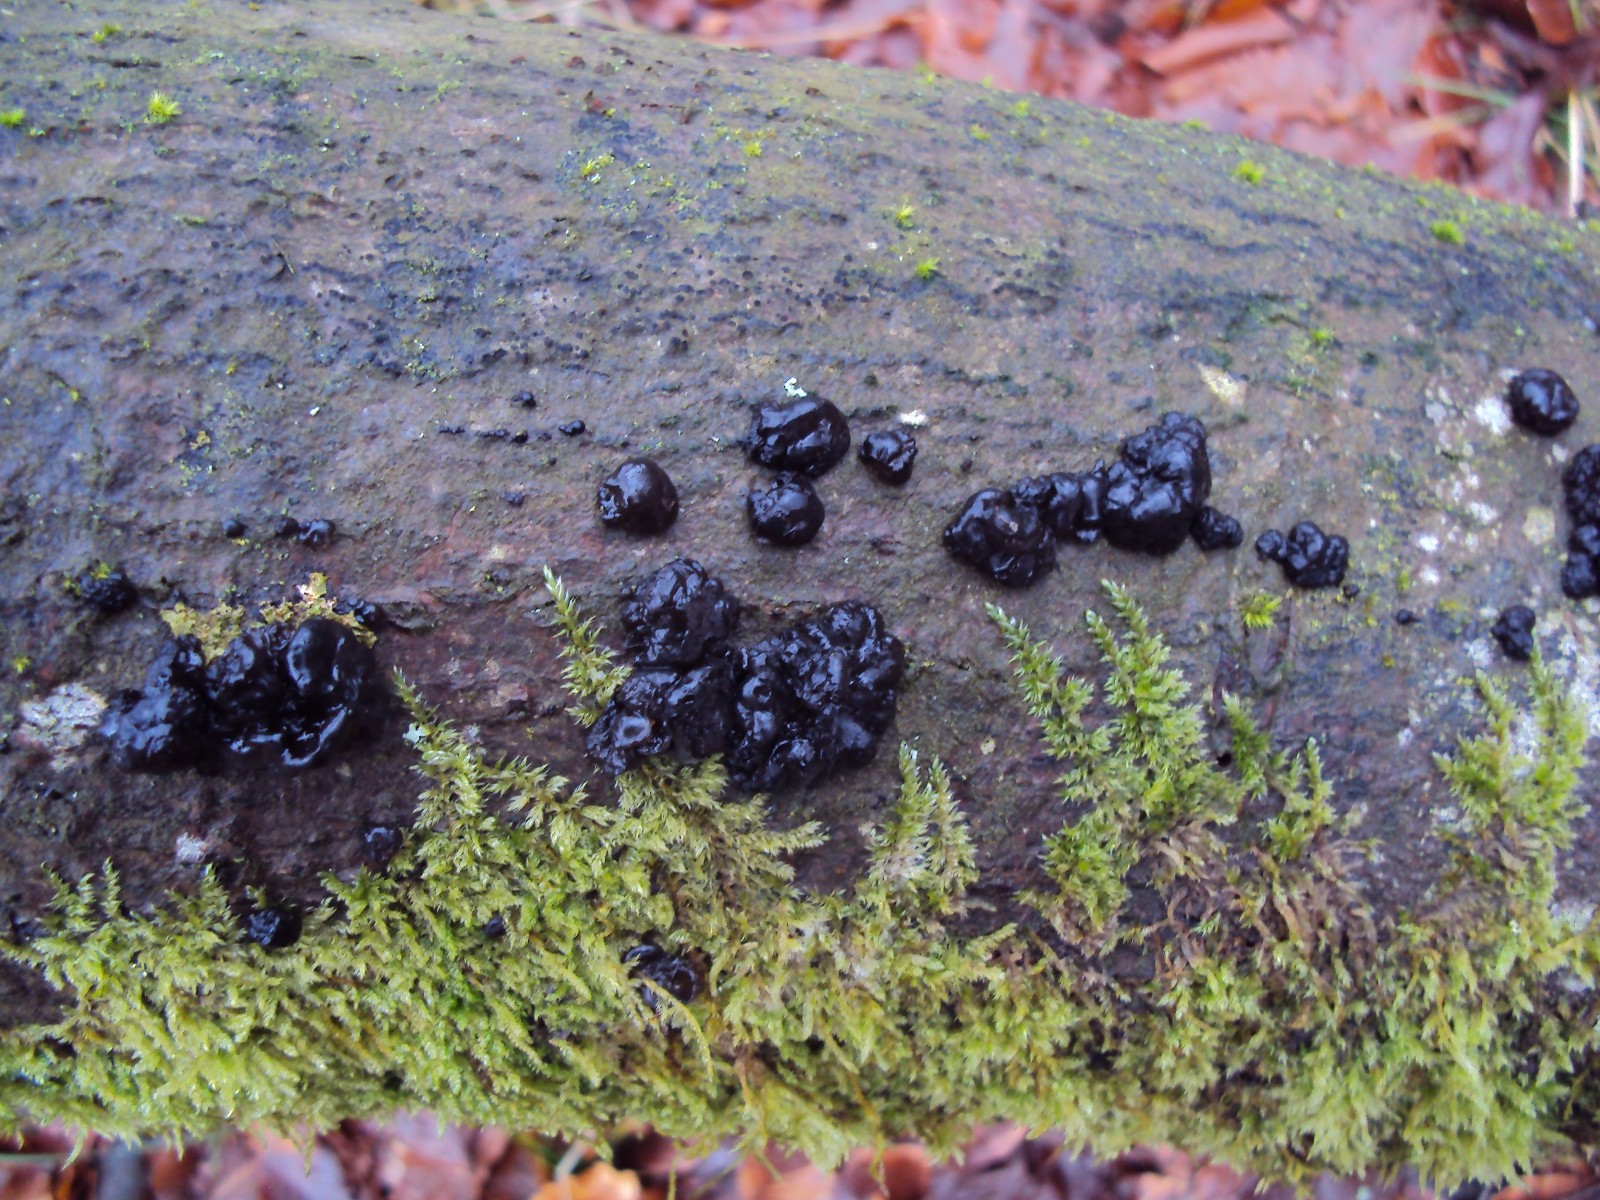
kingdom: Fungi
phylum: Basidiomycota
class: Agaricomycetes
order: Auriculariales
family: Auriculariaceae
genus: Exidia
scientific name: Exidia nigricans
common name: almindelig bævretop
